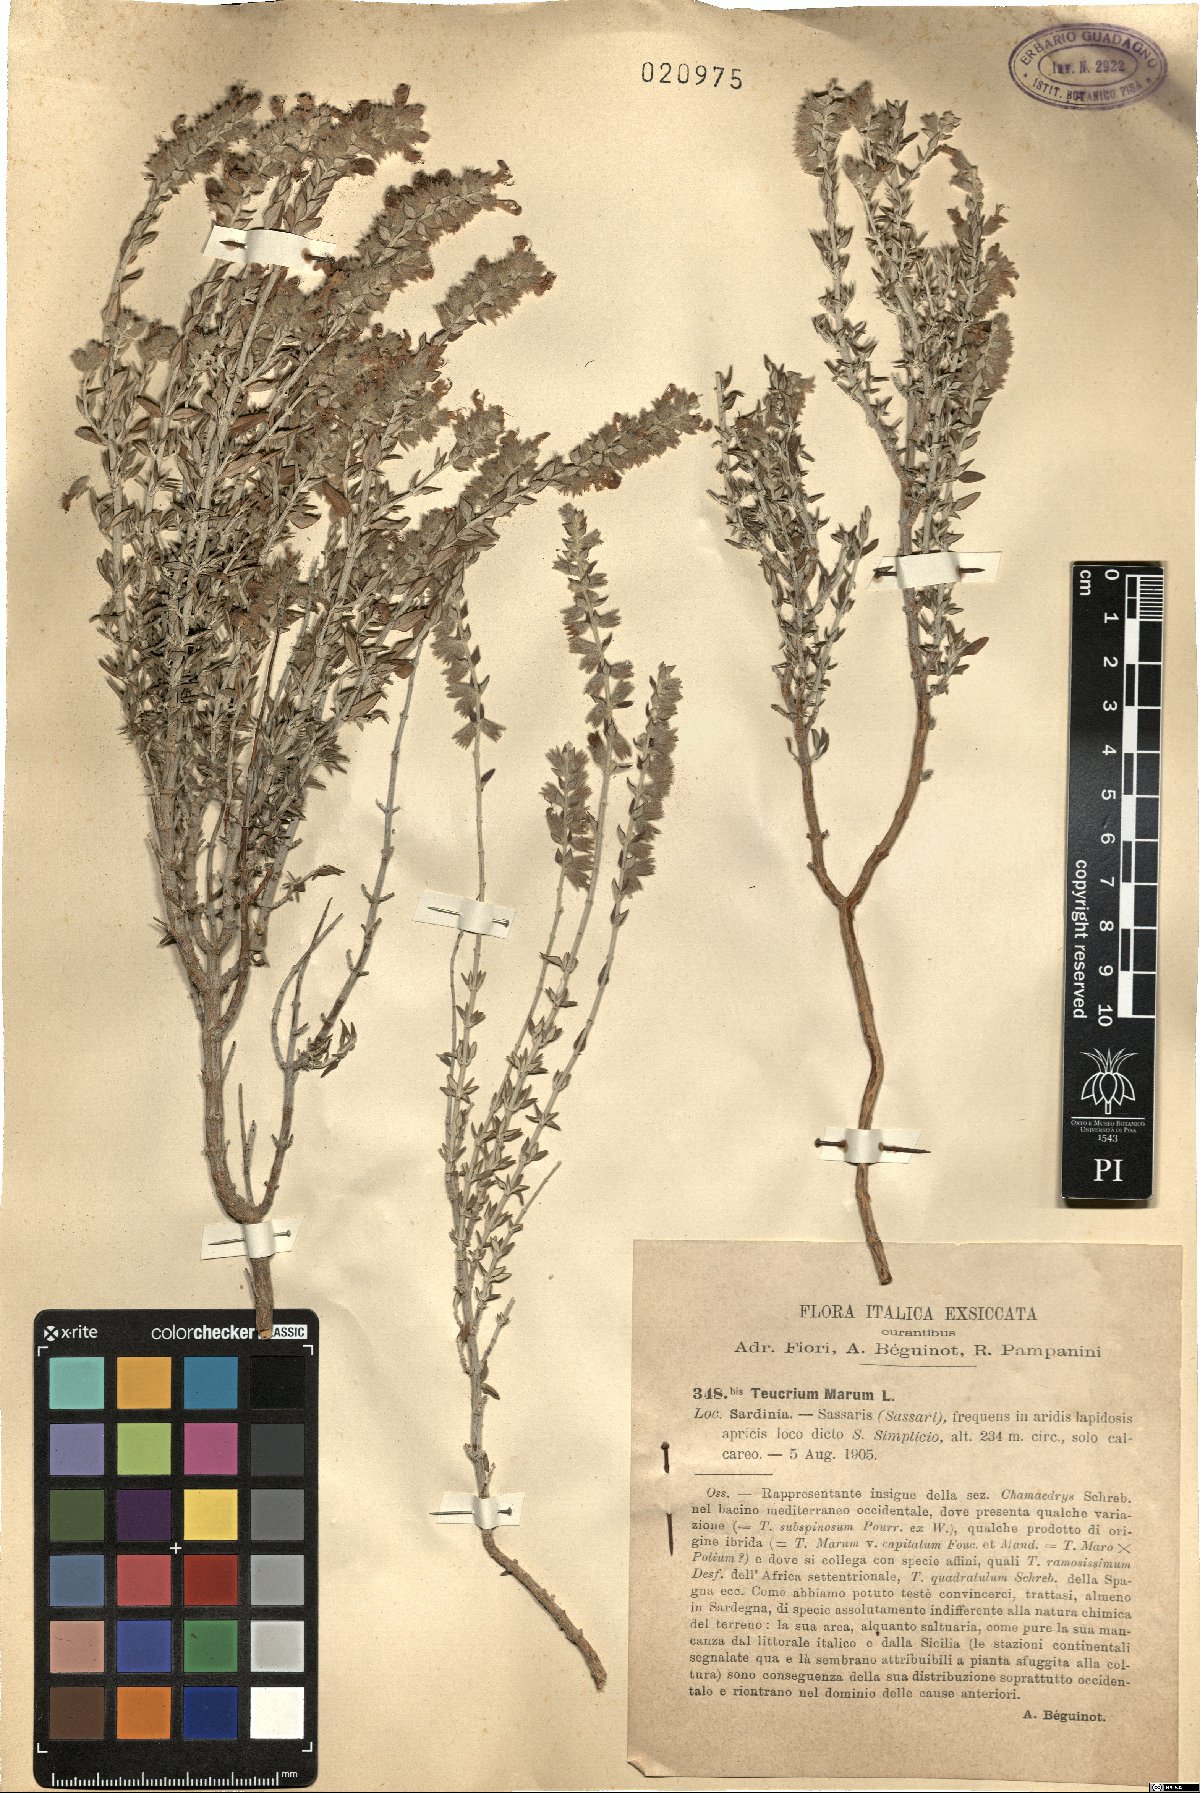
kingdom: Plantae
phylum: Tracheophyta
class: Magnoliopsida
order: Lamiales
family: Lamiaceae
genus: Teucrium
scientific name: Teucrium marum
